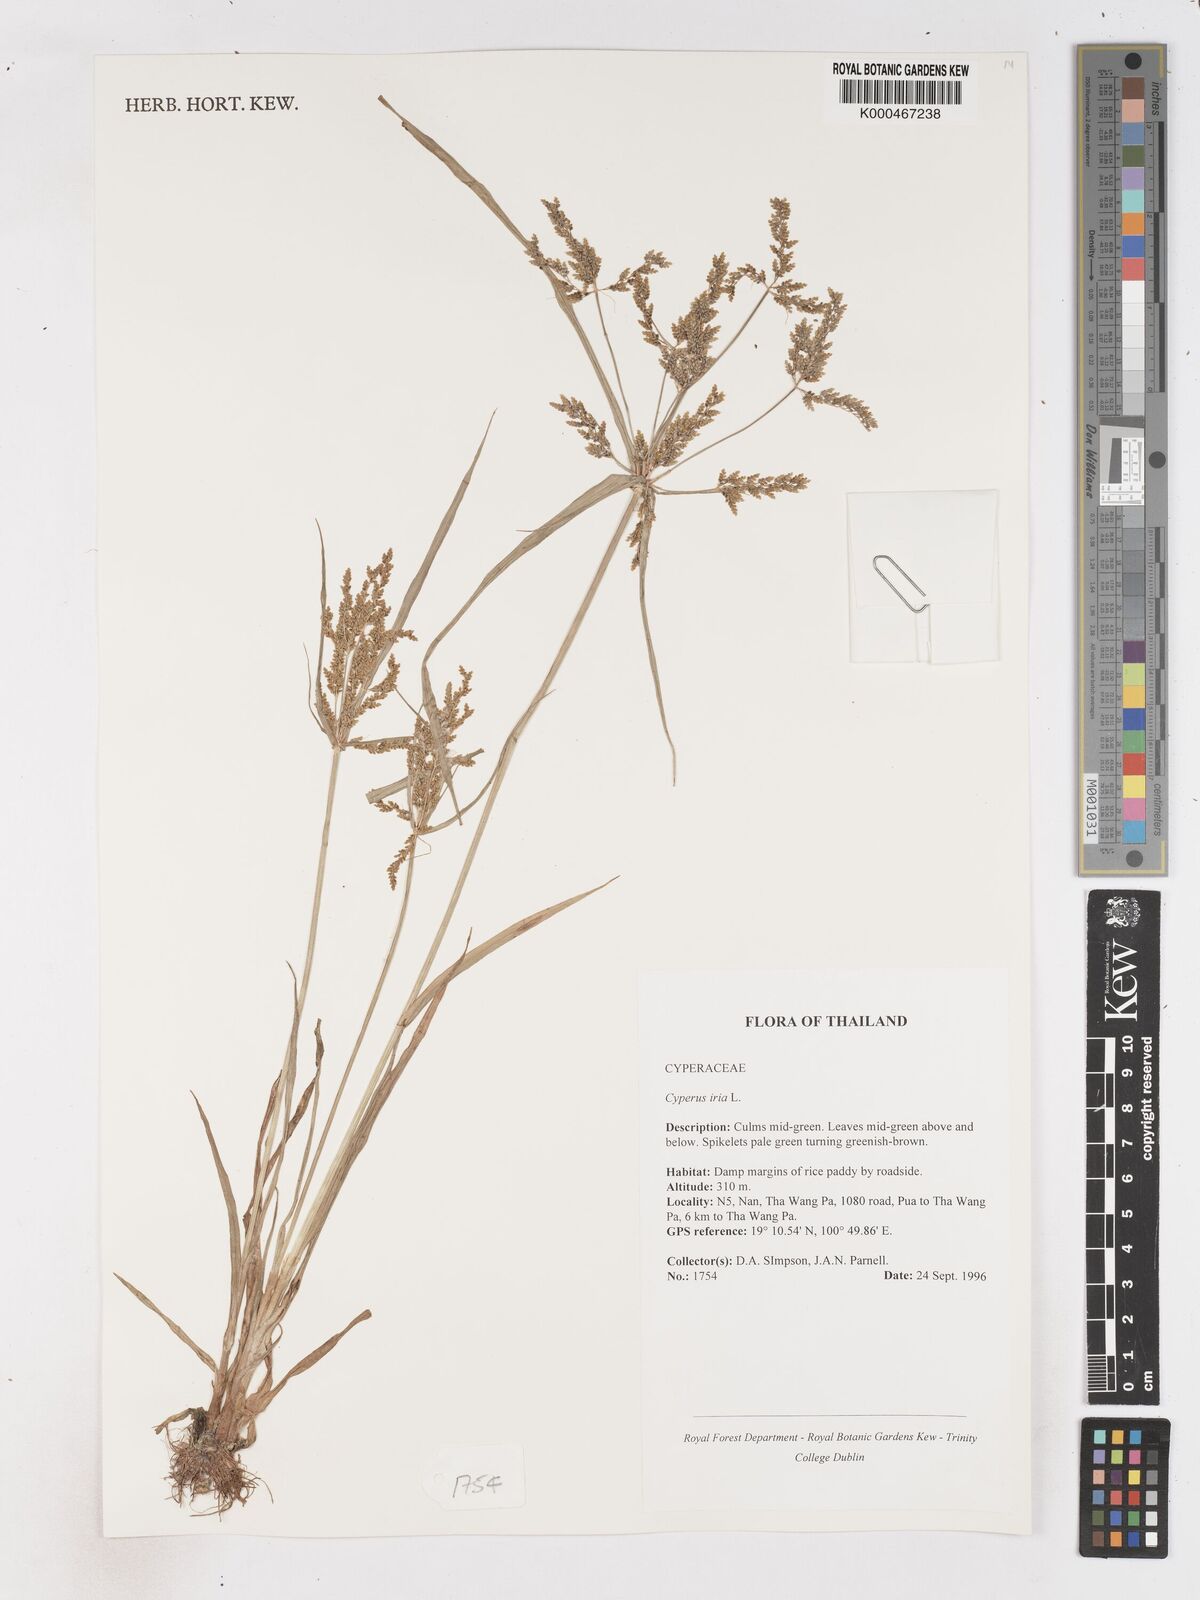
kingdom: Plantae
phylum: Tracheophyta
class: Liliopsida
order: Poales
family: Cyperaceae
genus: Cyperus
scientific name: Cyperus iria
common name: Ricefield flatsedge
